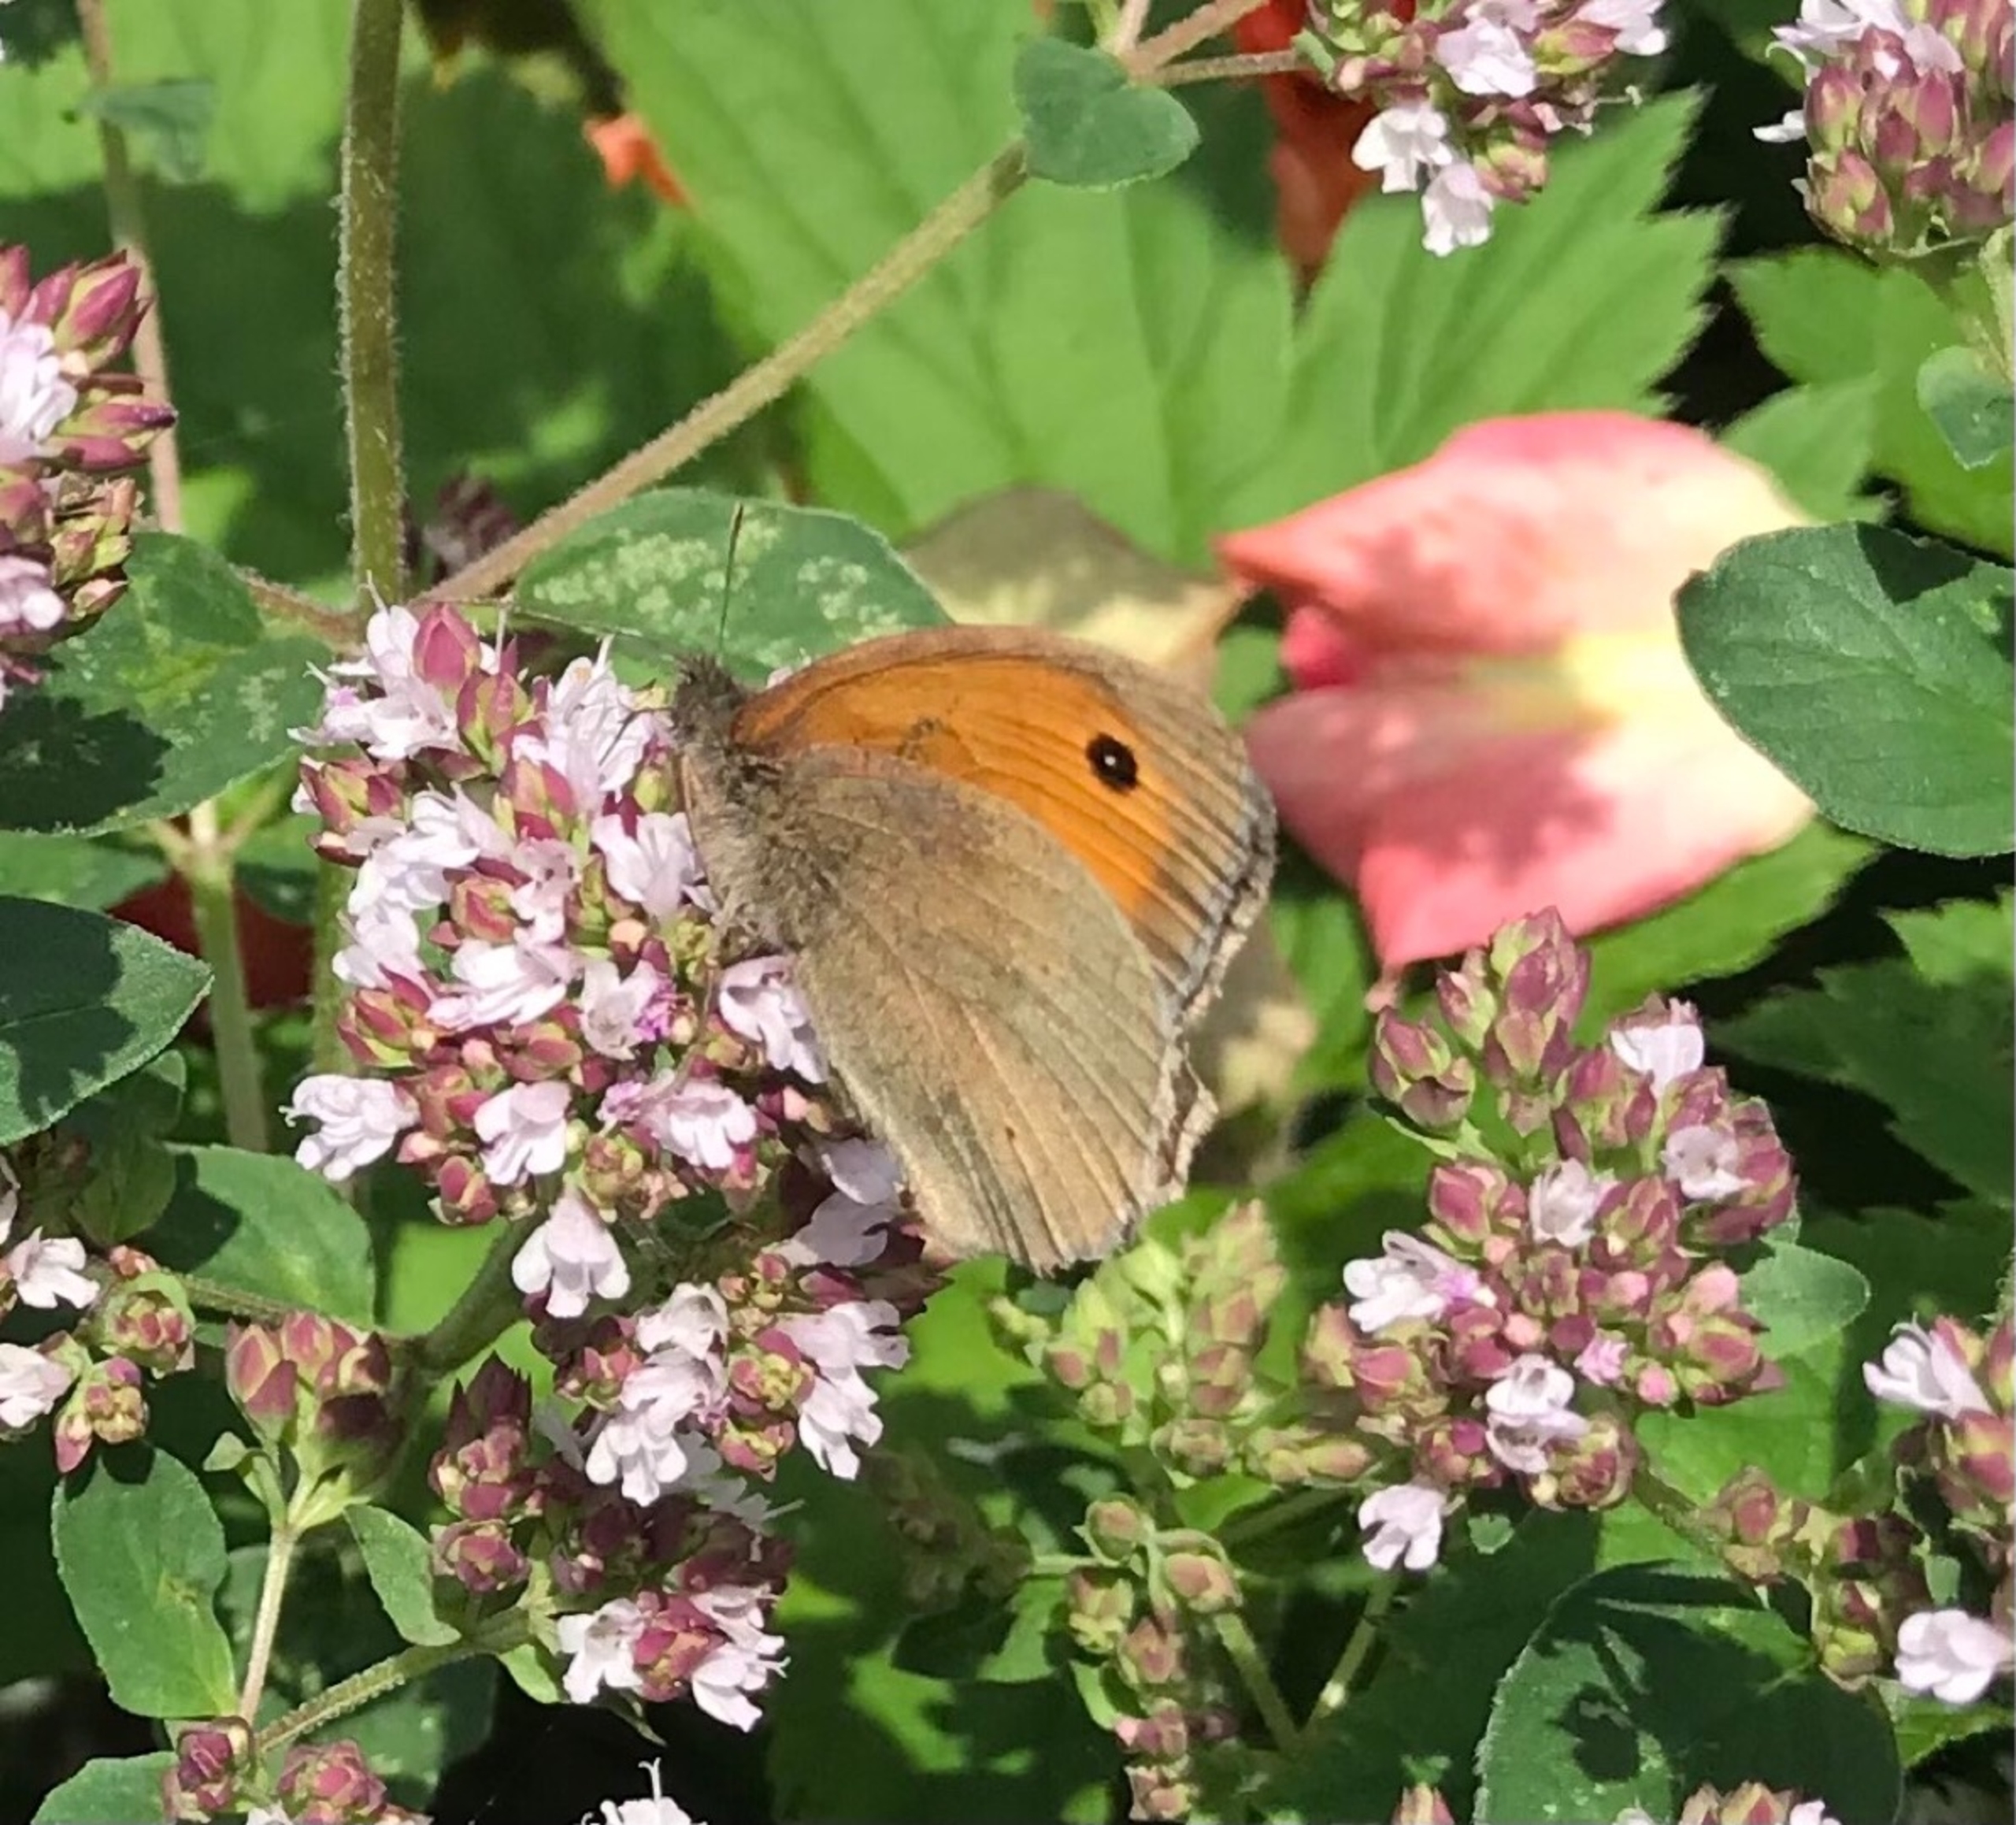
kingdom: Animalia
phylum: Arthropoda
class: Insecta
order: Lepidoptera
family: Nymphalidae
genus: Maniola
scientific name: Maniola jurtina
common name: Græsrandøje
